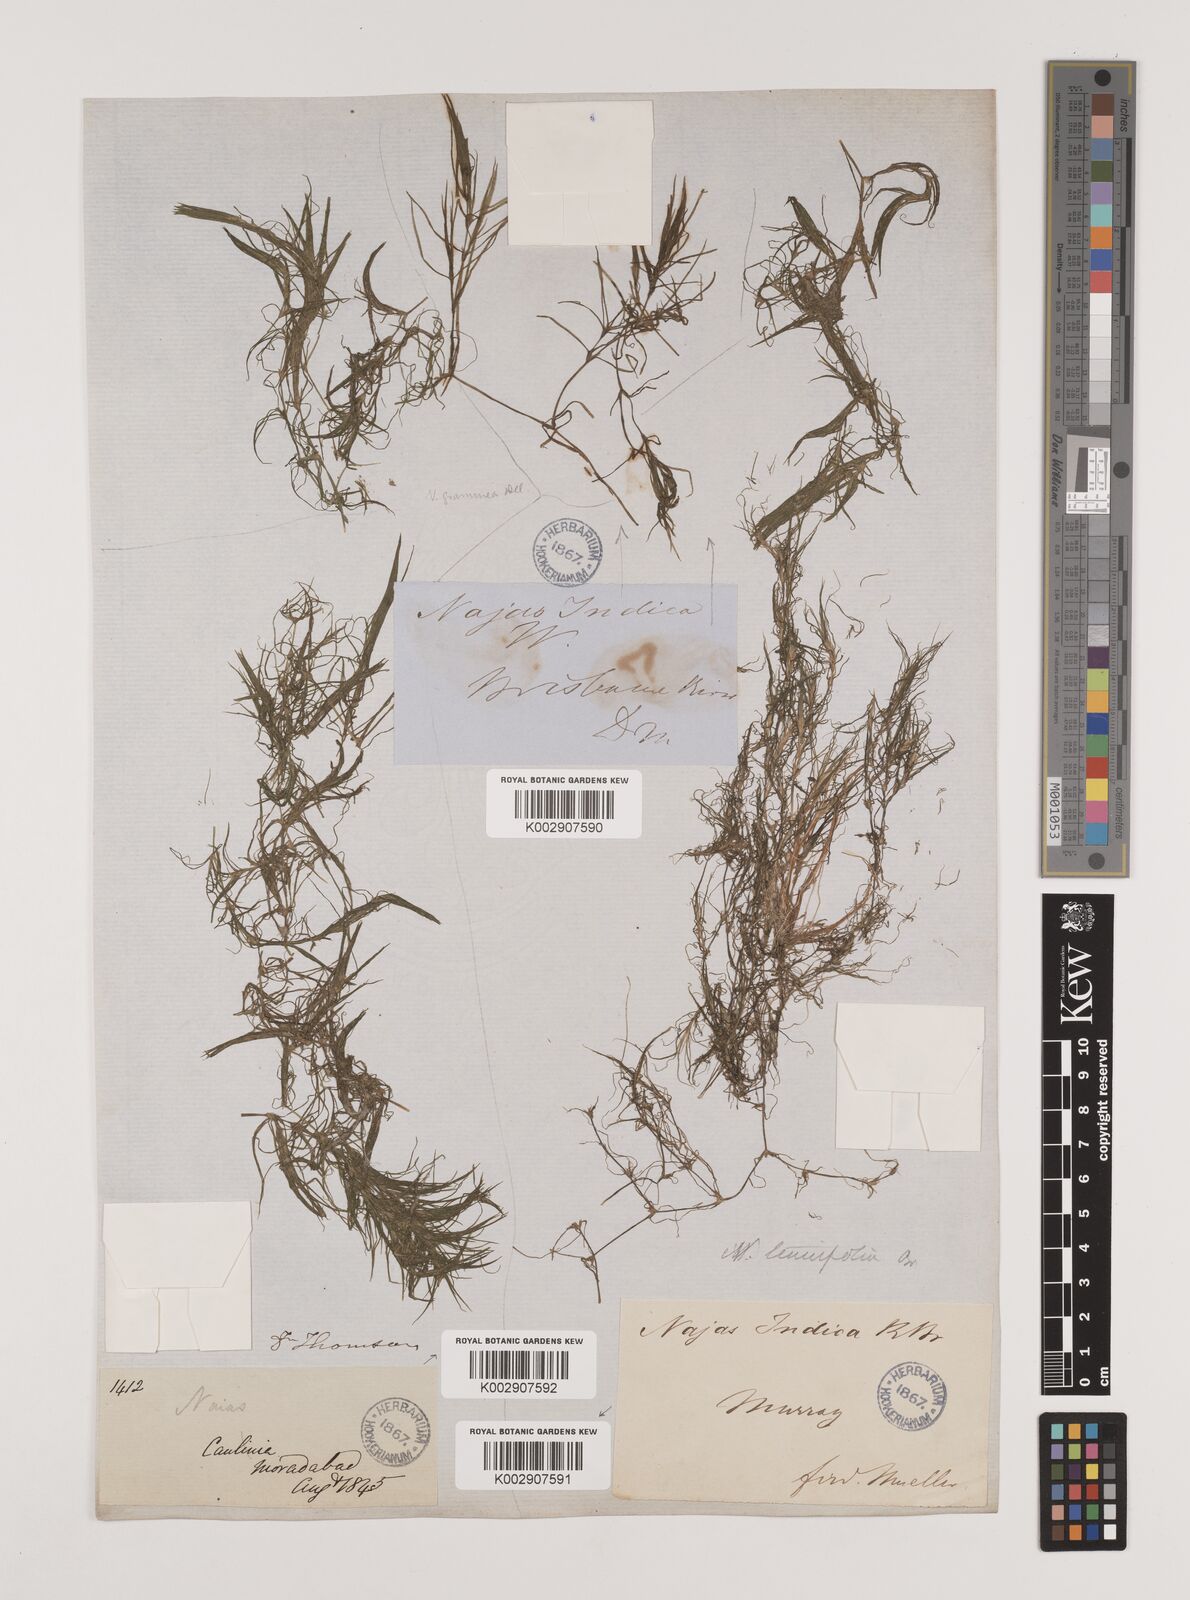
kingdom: Plantae
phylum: Tracheophyta
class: Liliopsida
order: Alismatales
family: Hydrocharitaceae
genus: Najas
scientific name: Najas tenuifolia
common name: Thin-leaved naiad
